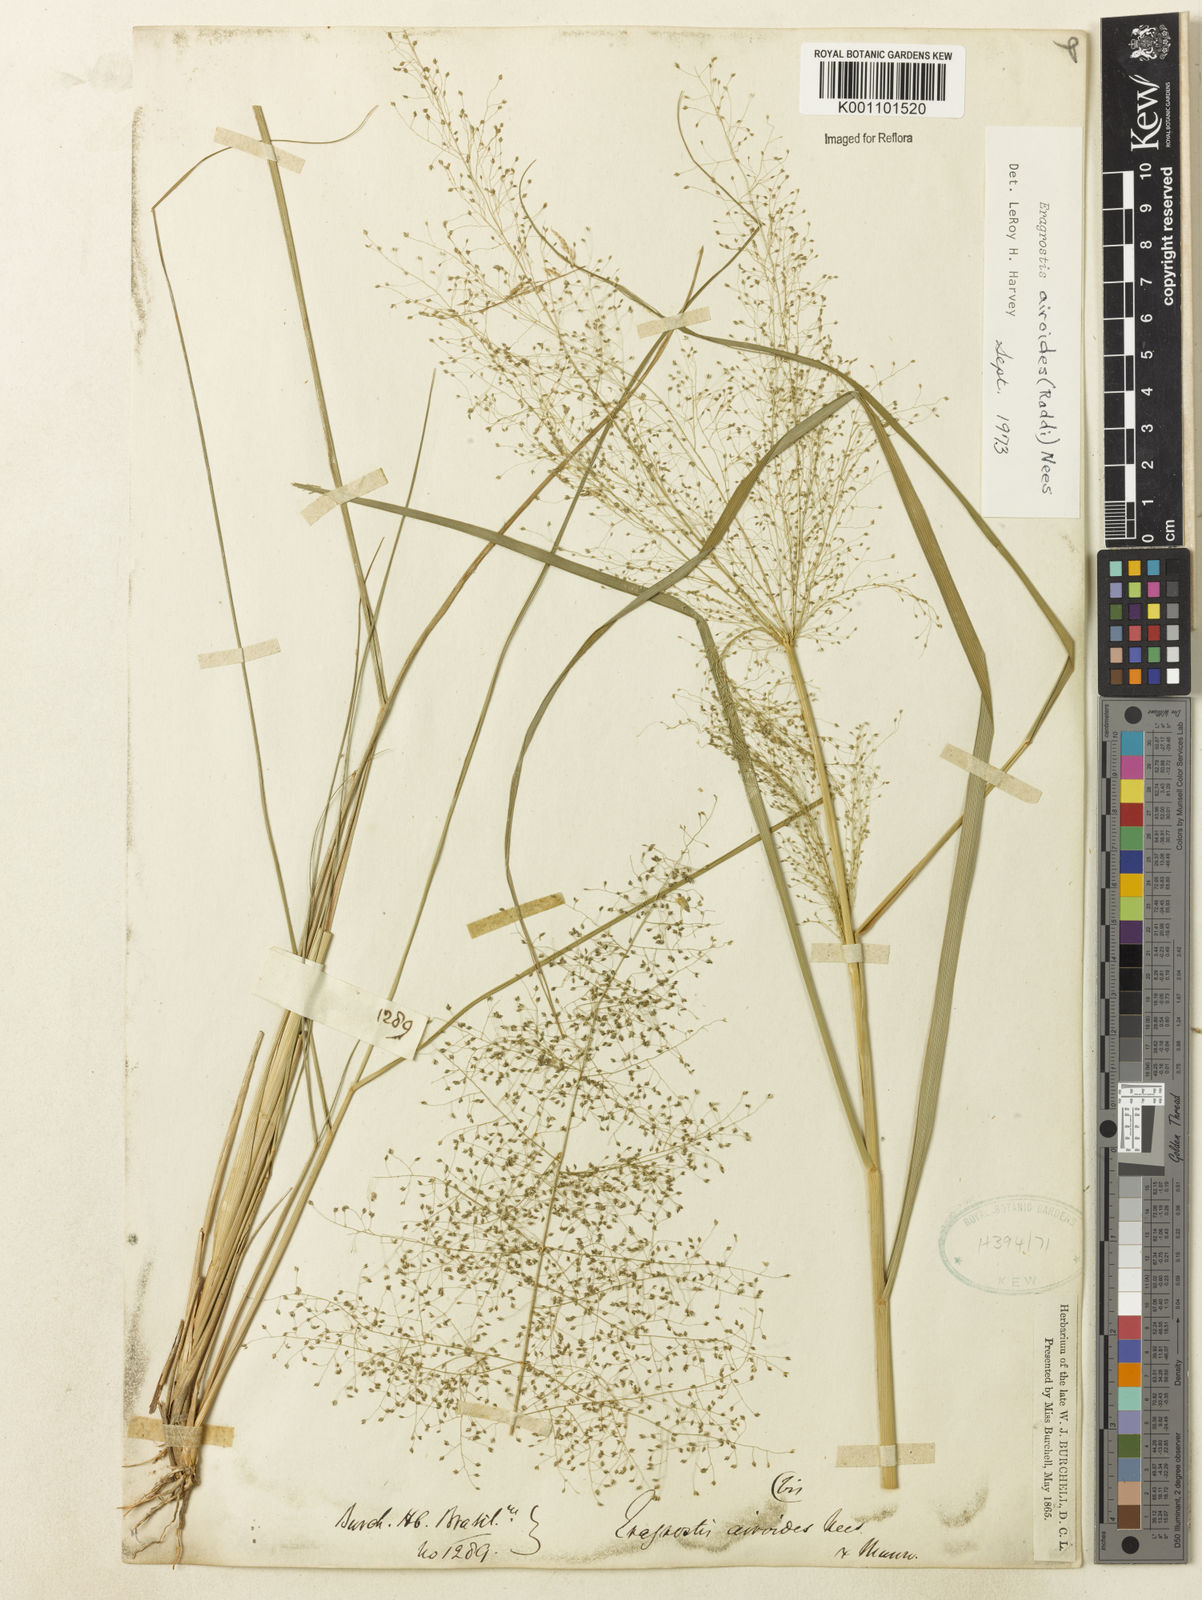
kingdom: Plantae
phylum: Tracheophyta
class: Liliopsida
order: Poales
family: Poaceae
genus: Eragrostis
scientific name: Eragrostis airoides
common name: Darnel lovegrass
